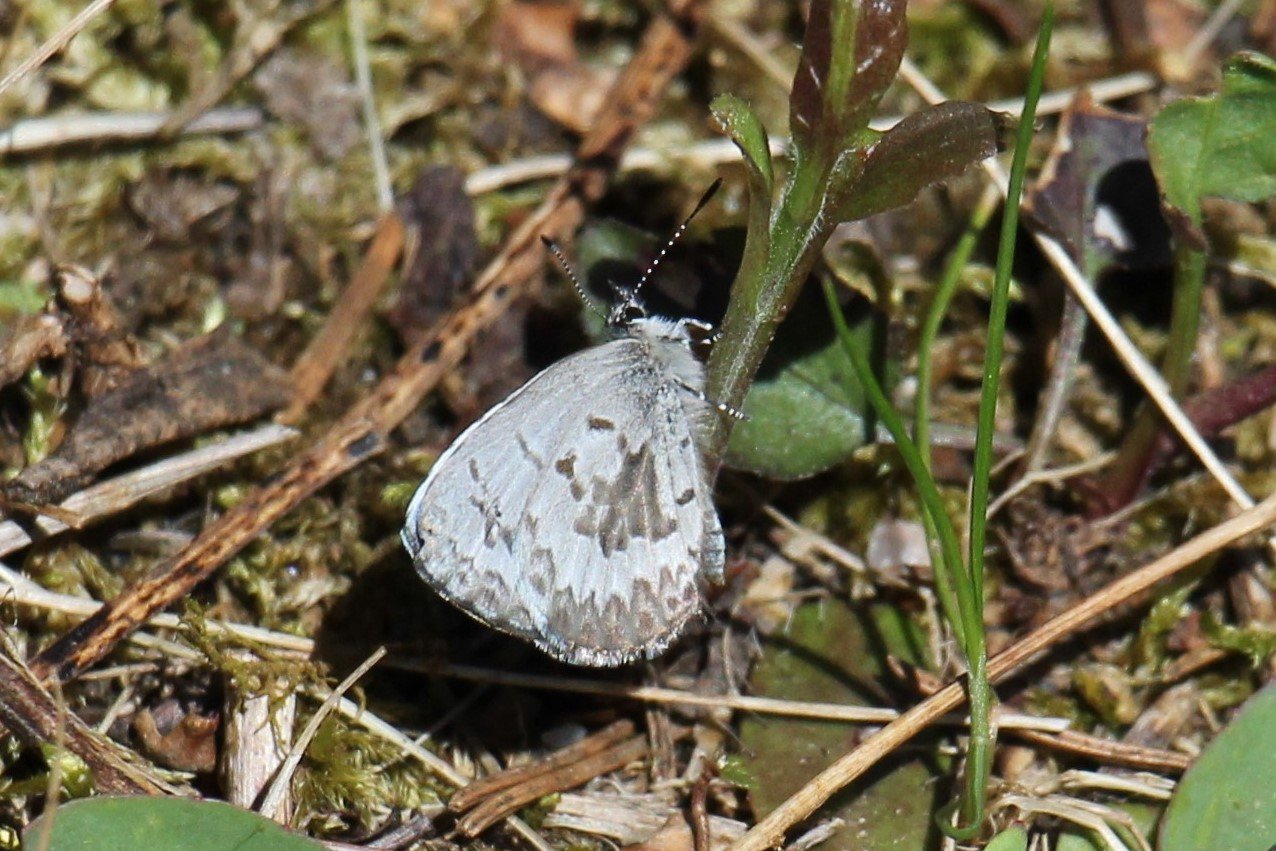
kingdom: Animalia
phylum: Arthropoda
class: Insecta
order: Lepidoptera
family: Lycaenidae
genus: Celastrina
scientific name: Celastrina lucia
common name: Northern Spring Azure
